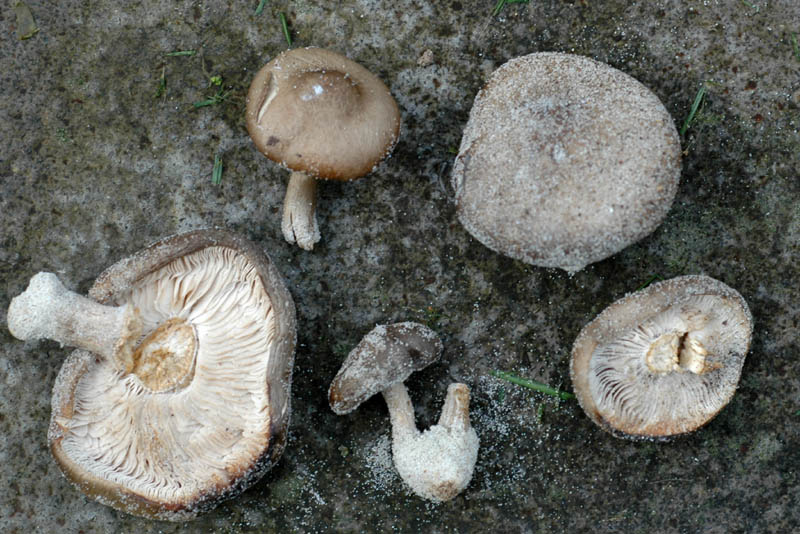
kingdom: Fungi
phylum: Basidiomycota
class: Agaricomycetes
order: Agaricales
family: Tricholomataceae
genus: Melanoleuca
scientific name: Melanoleuca ammophila
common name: gråbladet munkehat
